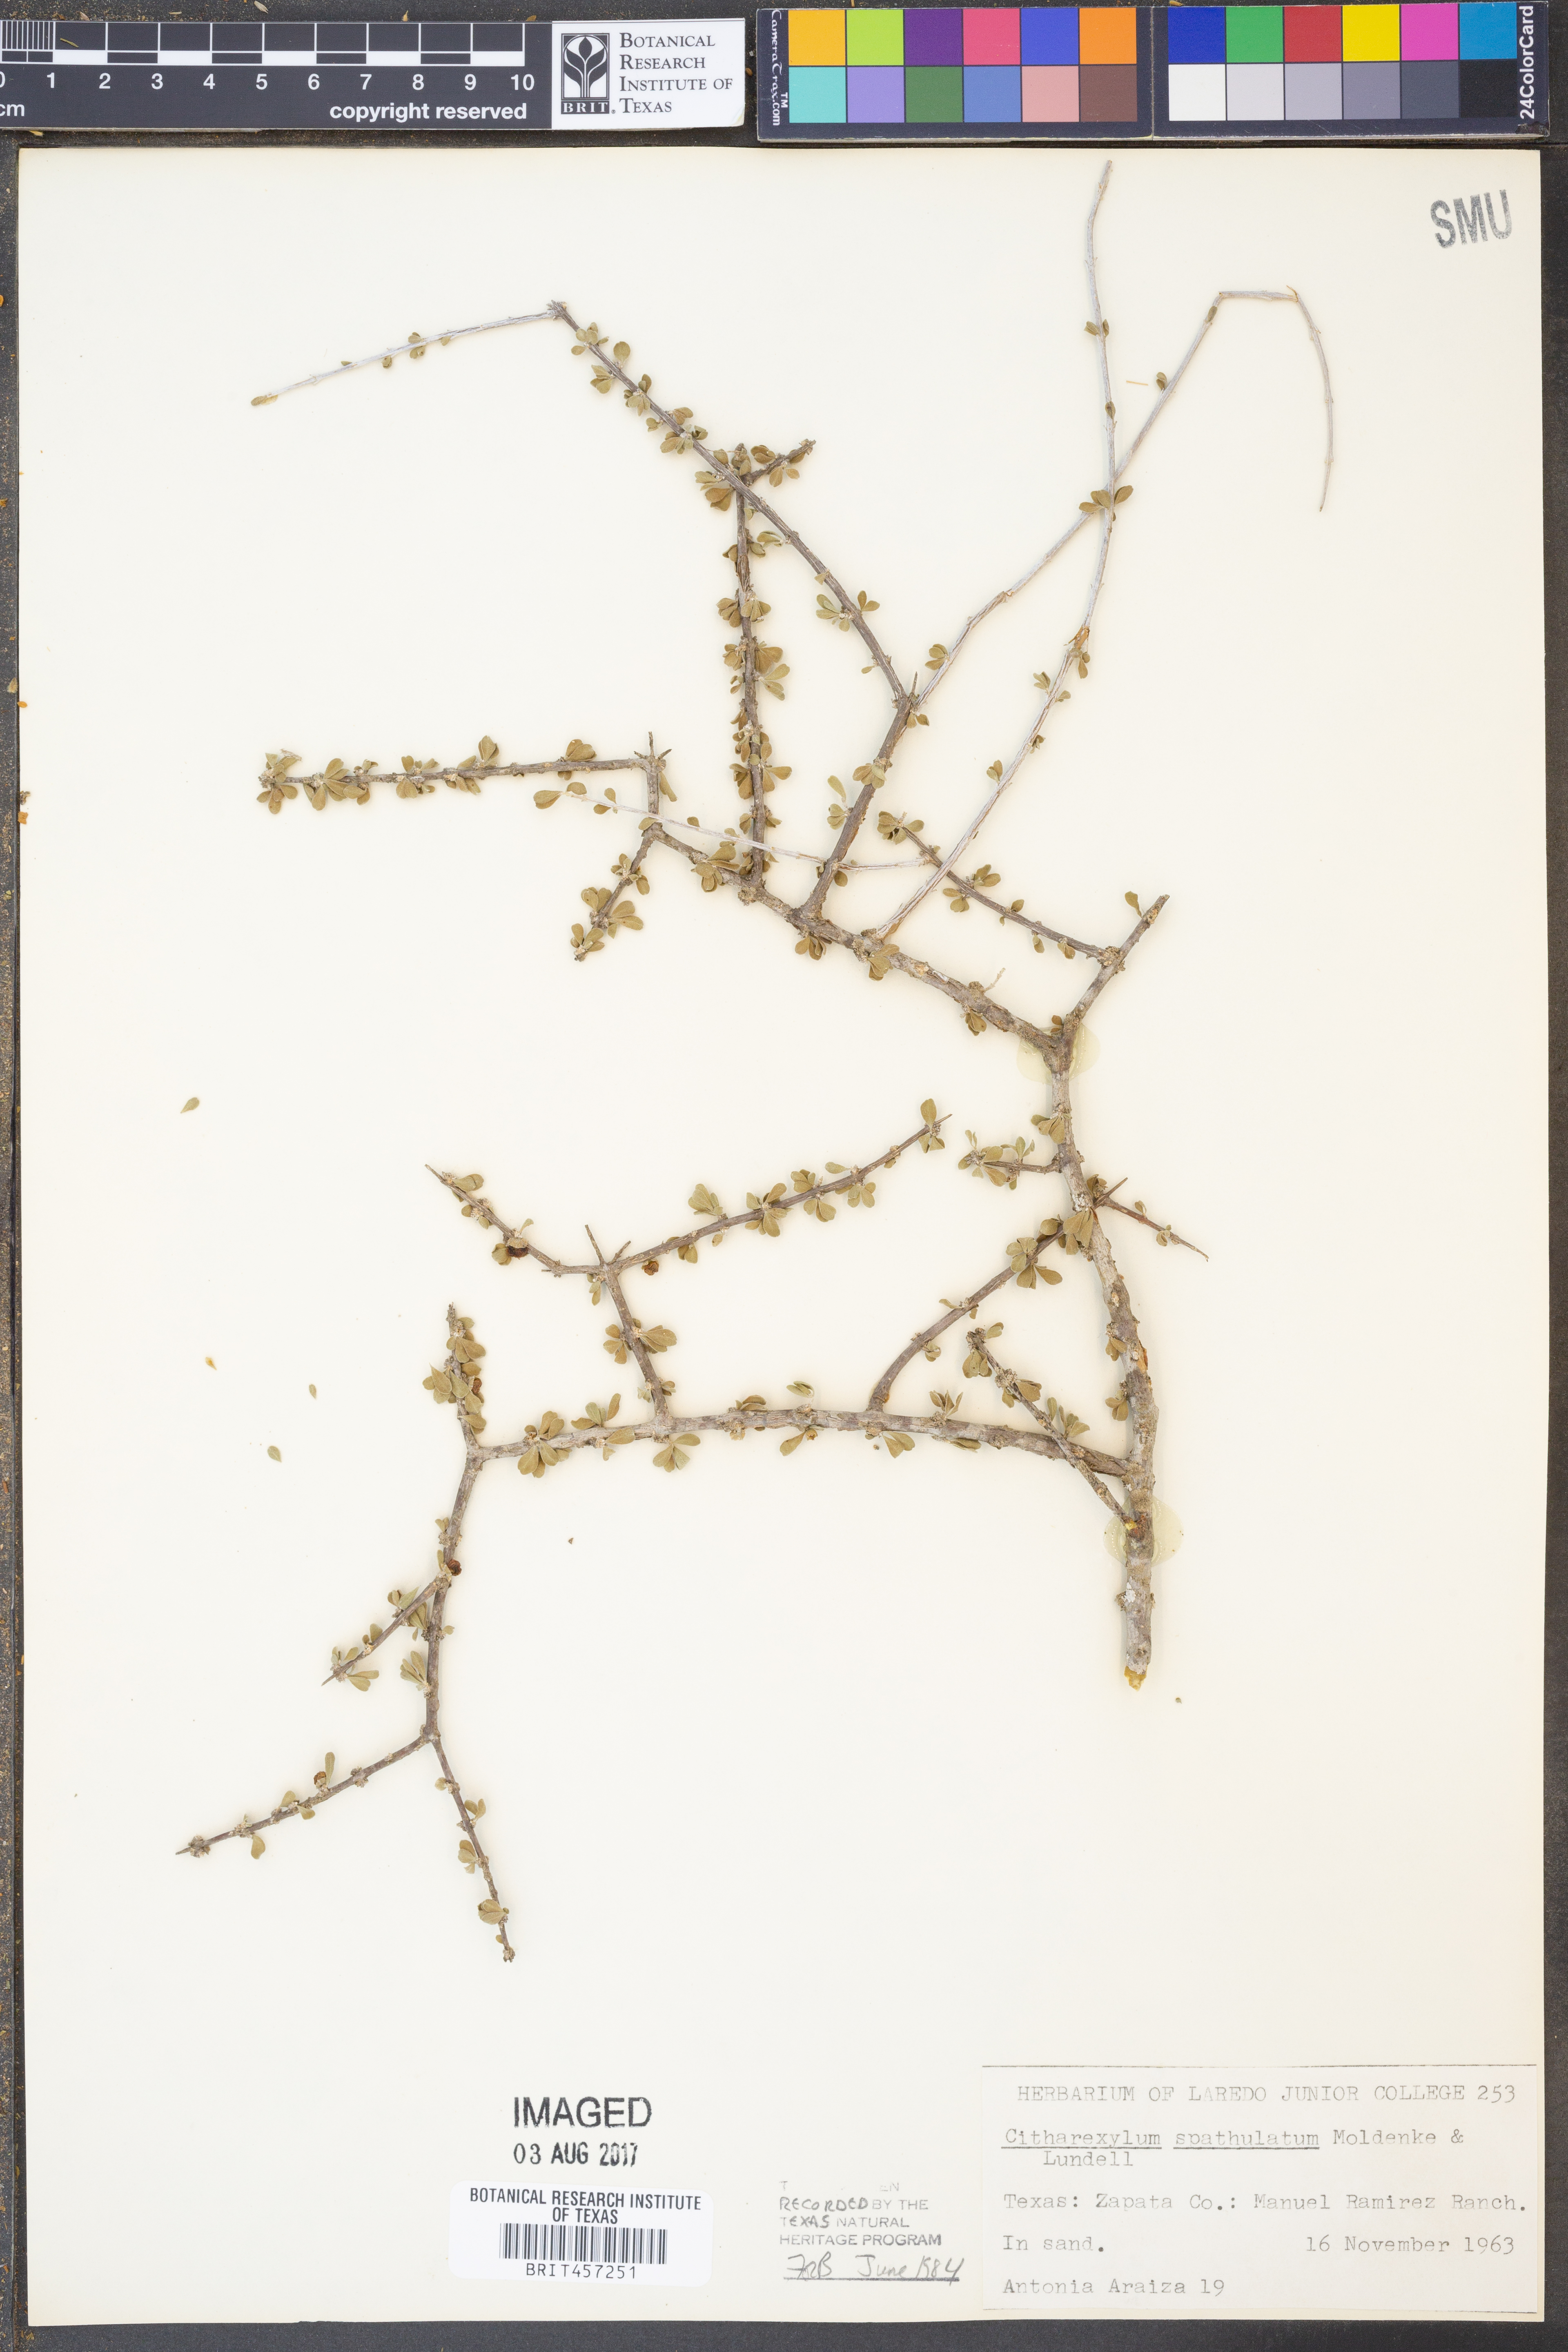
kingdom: Plantae
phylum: Tracheophyta
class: Magnoliopsida
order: Lamiales
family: Verbenaceae
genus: Citharexylum
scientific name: Citharexylum brachyanthum
